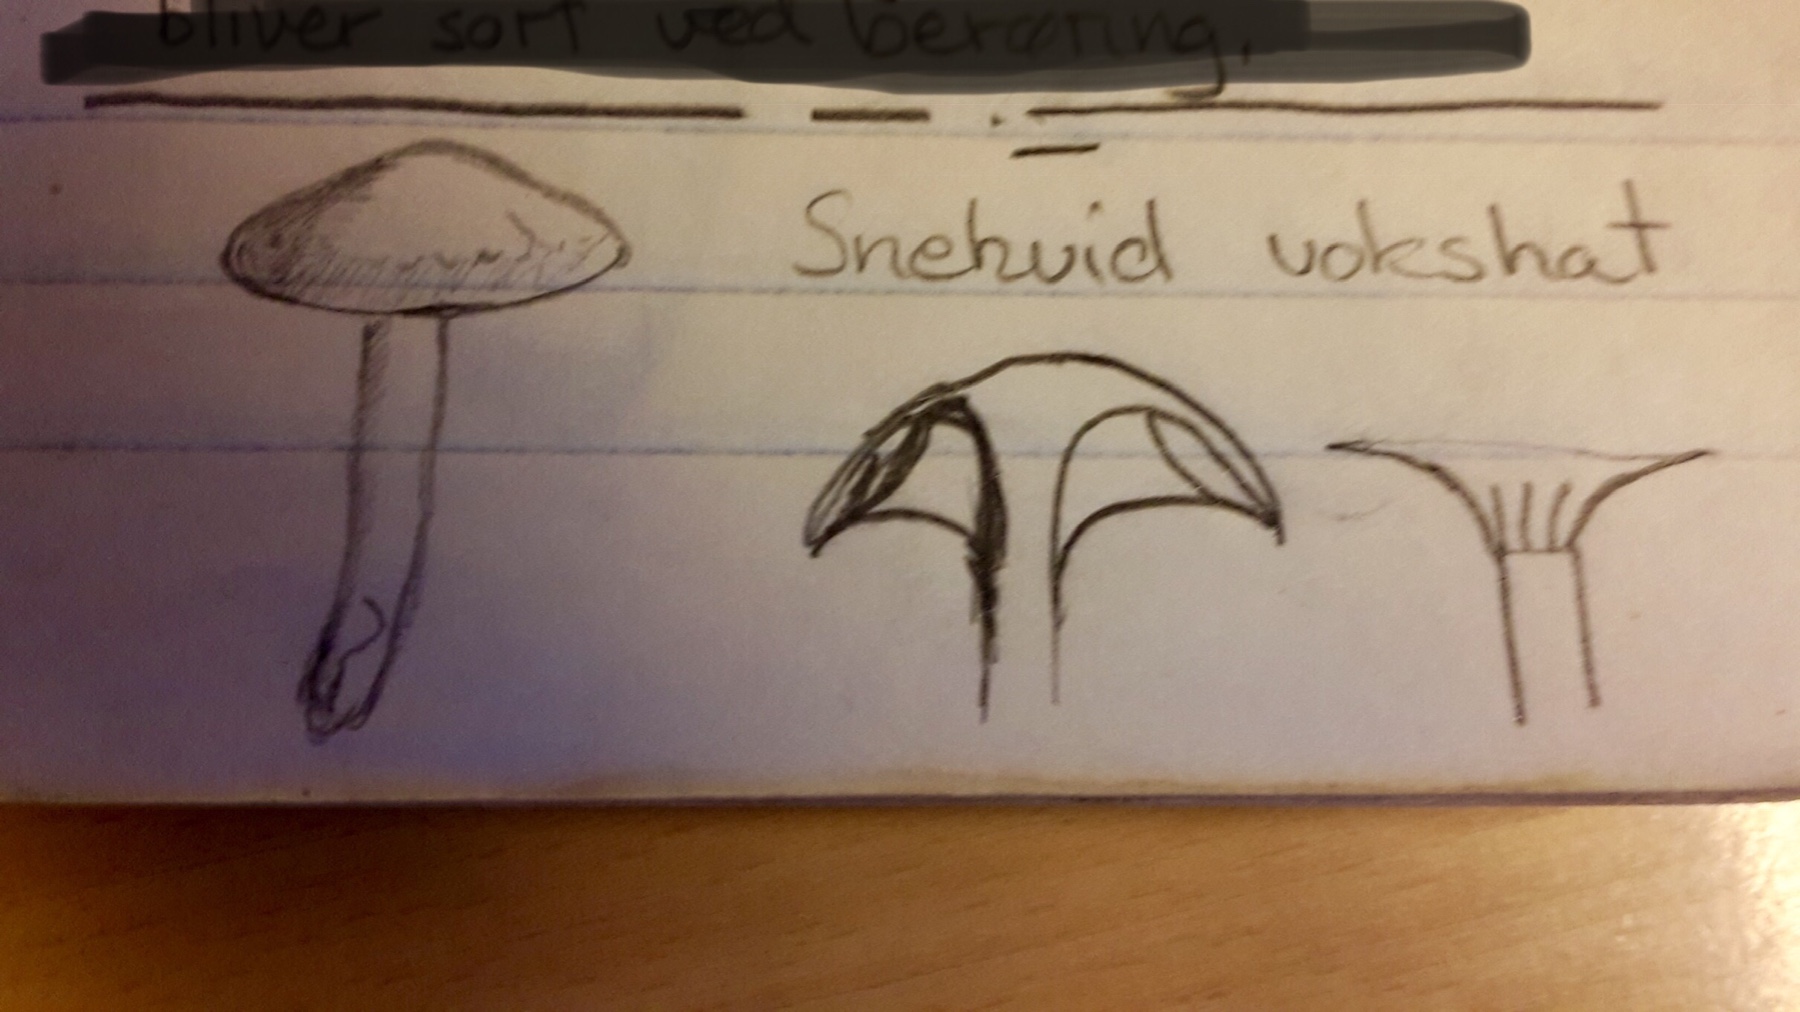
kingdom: Fungi
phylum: Basidiomycota
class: Agaricomycetes
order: Agaricales
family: Hygrophoraceae
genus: Cuphophyllus
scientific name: Cuphophyllus virgineus
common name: snehvid vokshat
